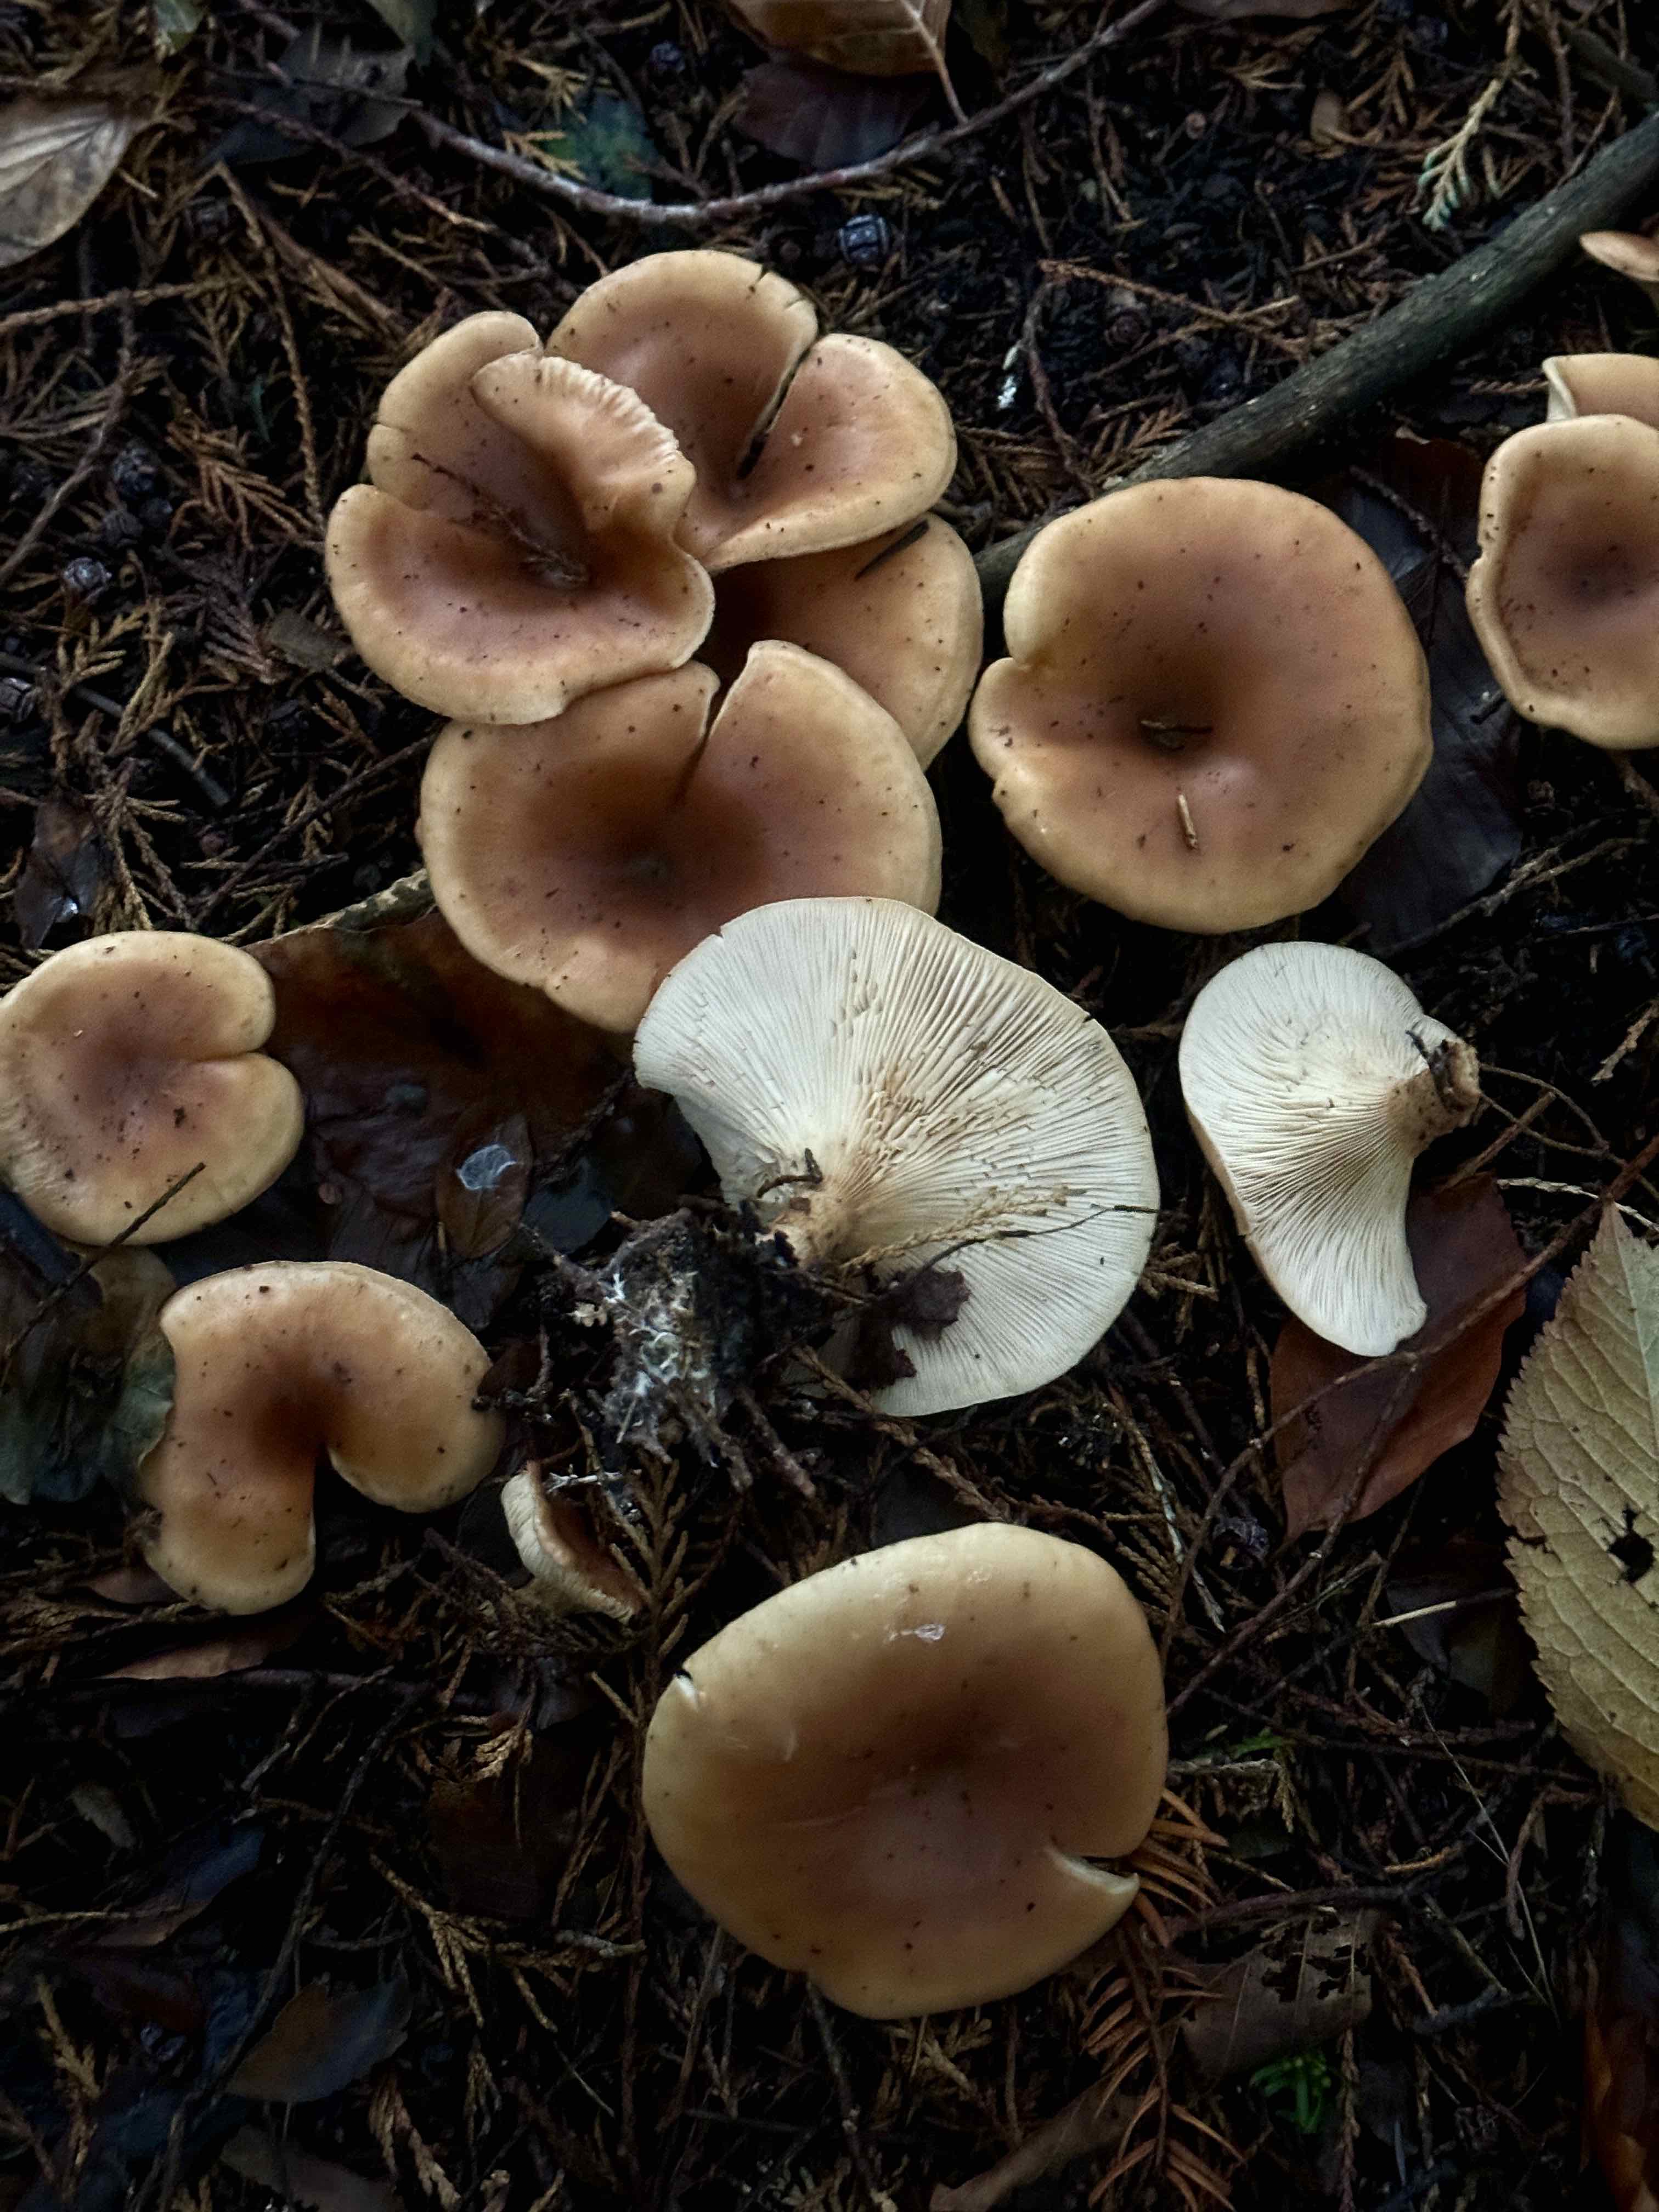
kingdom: Fungi
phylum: Basidiomycota
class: Agaricomycetes
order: Agaricales
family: Tricholomataceae
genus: Paralepista
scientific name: Paralepista flaccida
